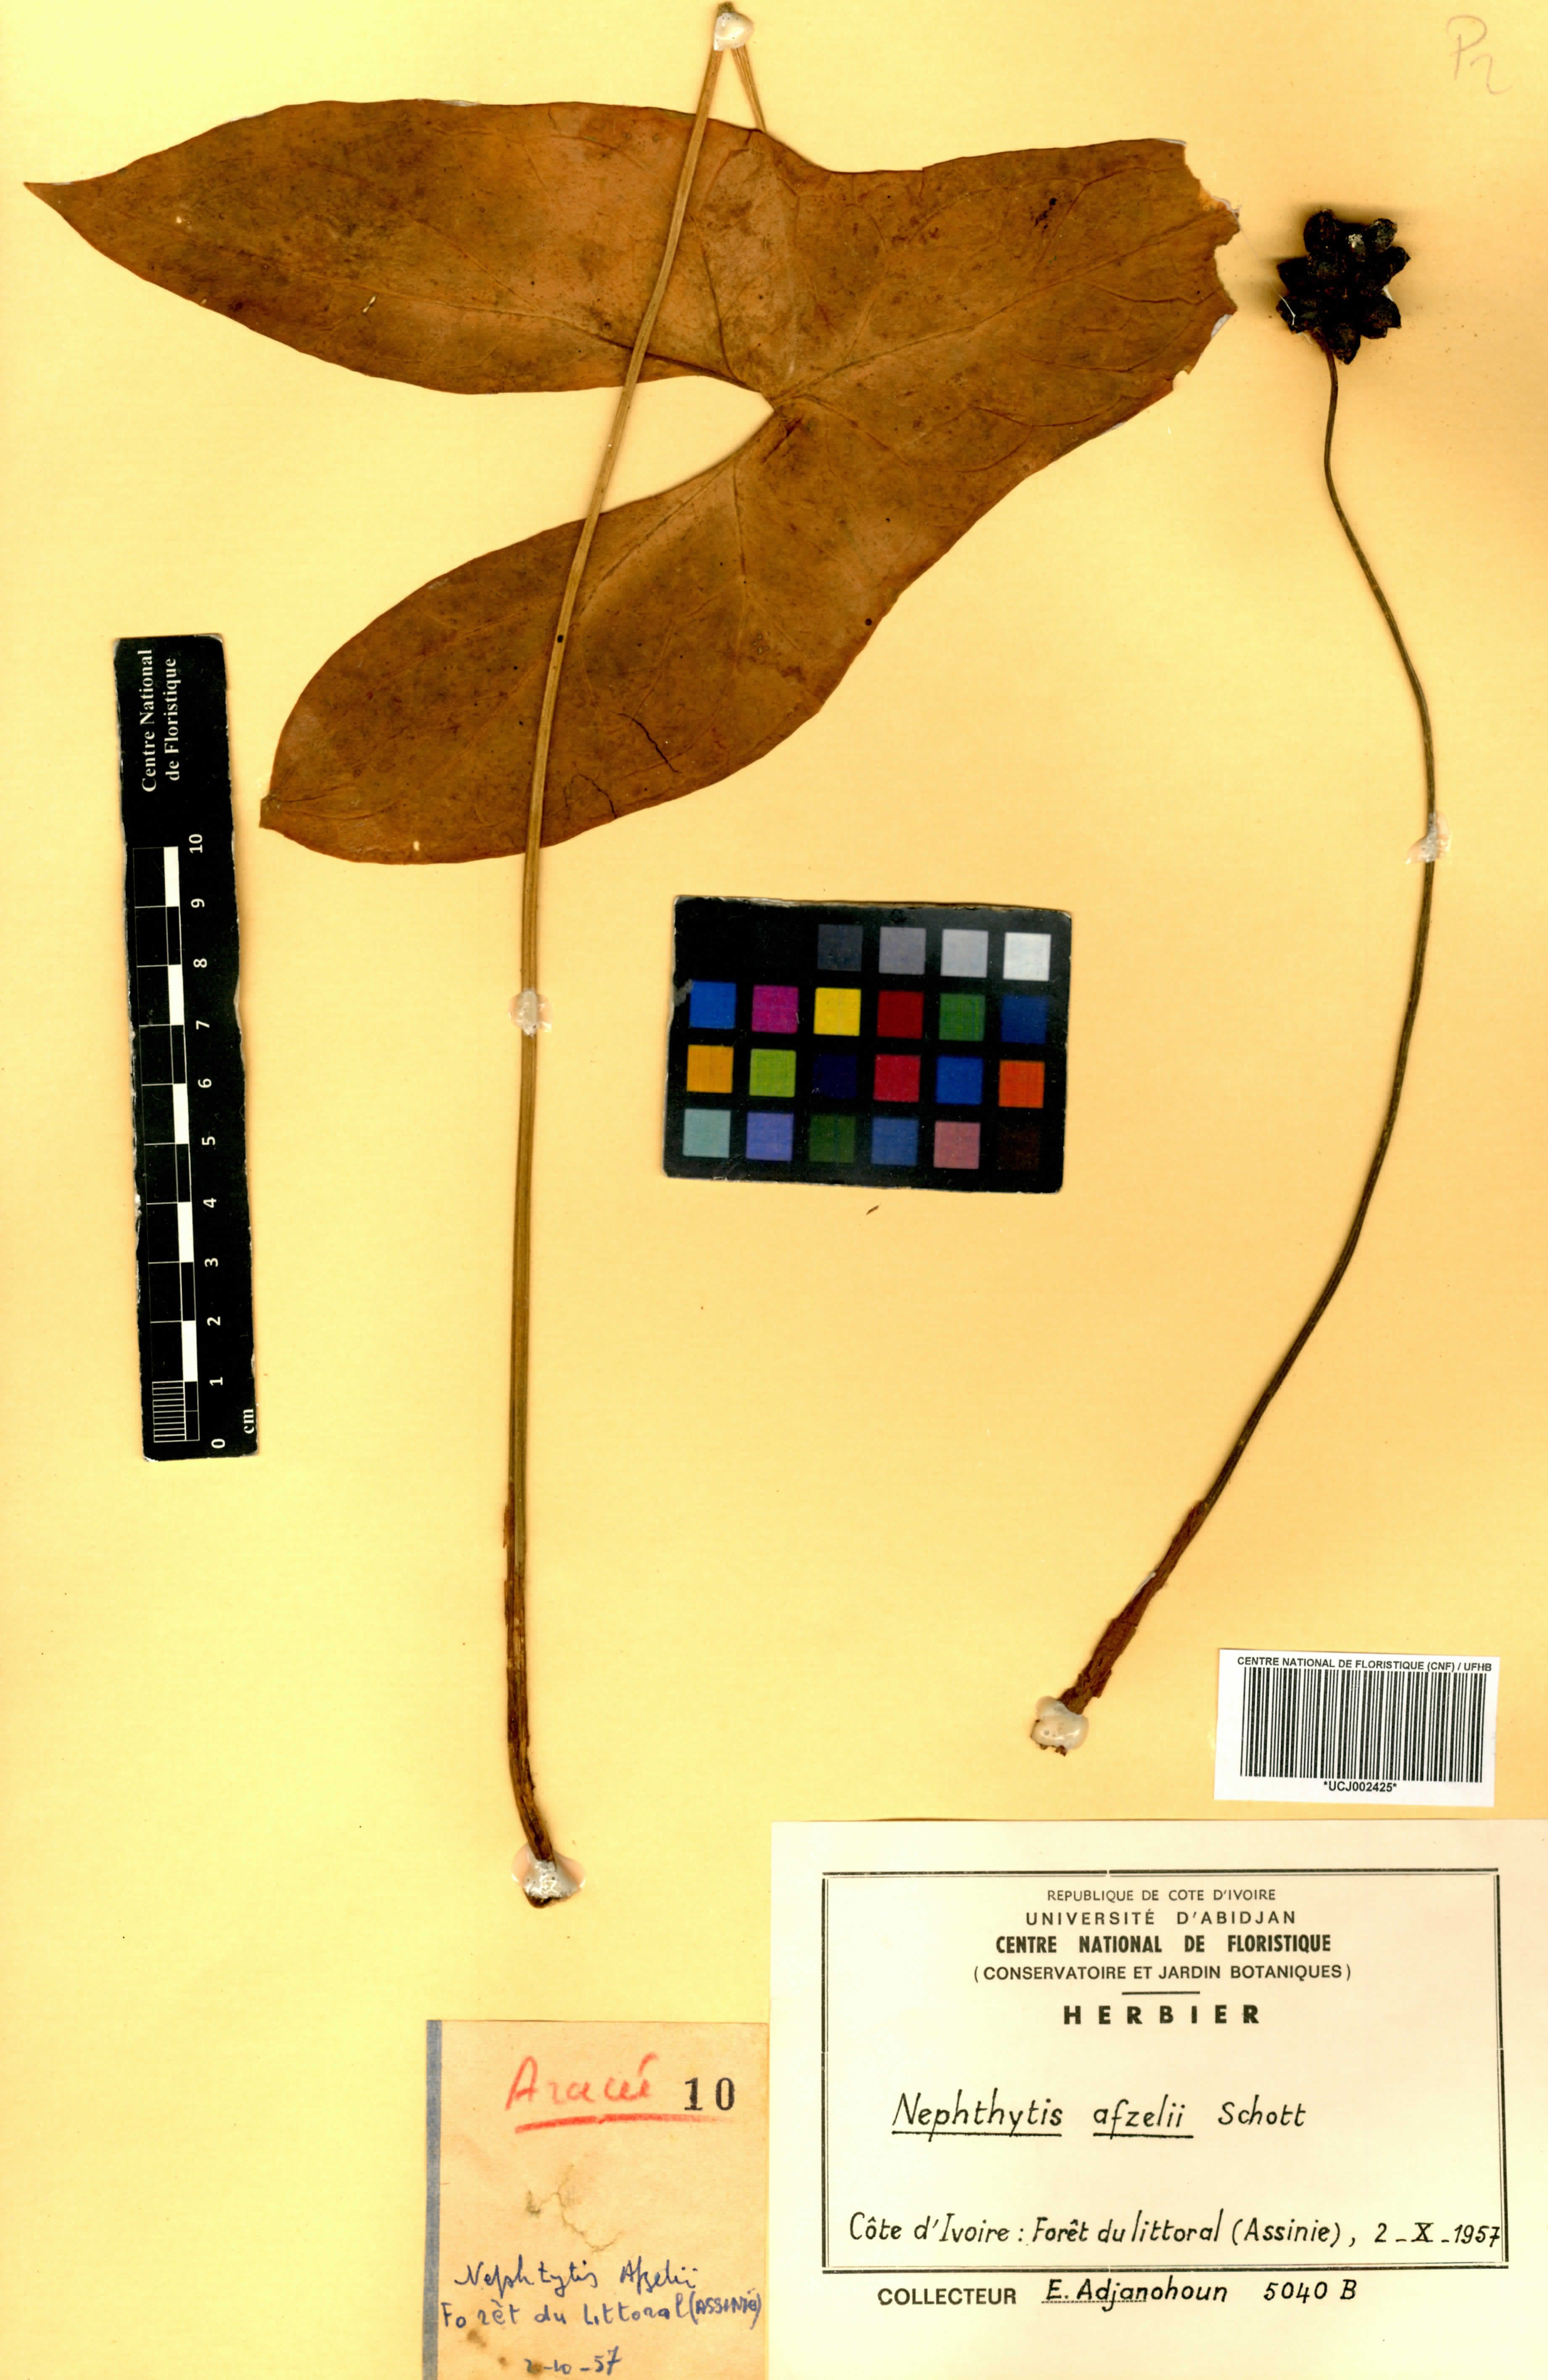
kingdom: Plantae
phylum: Tracheophyta
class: Liliopsida
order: Alismatales
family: Araceae
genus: Nephthytis
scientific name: Nephthytis afzelii
